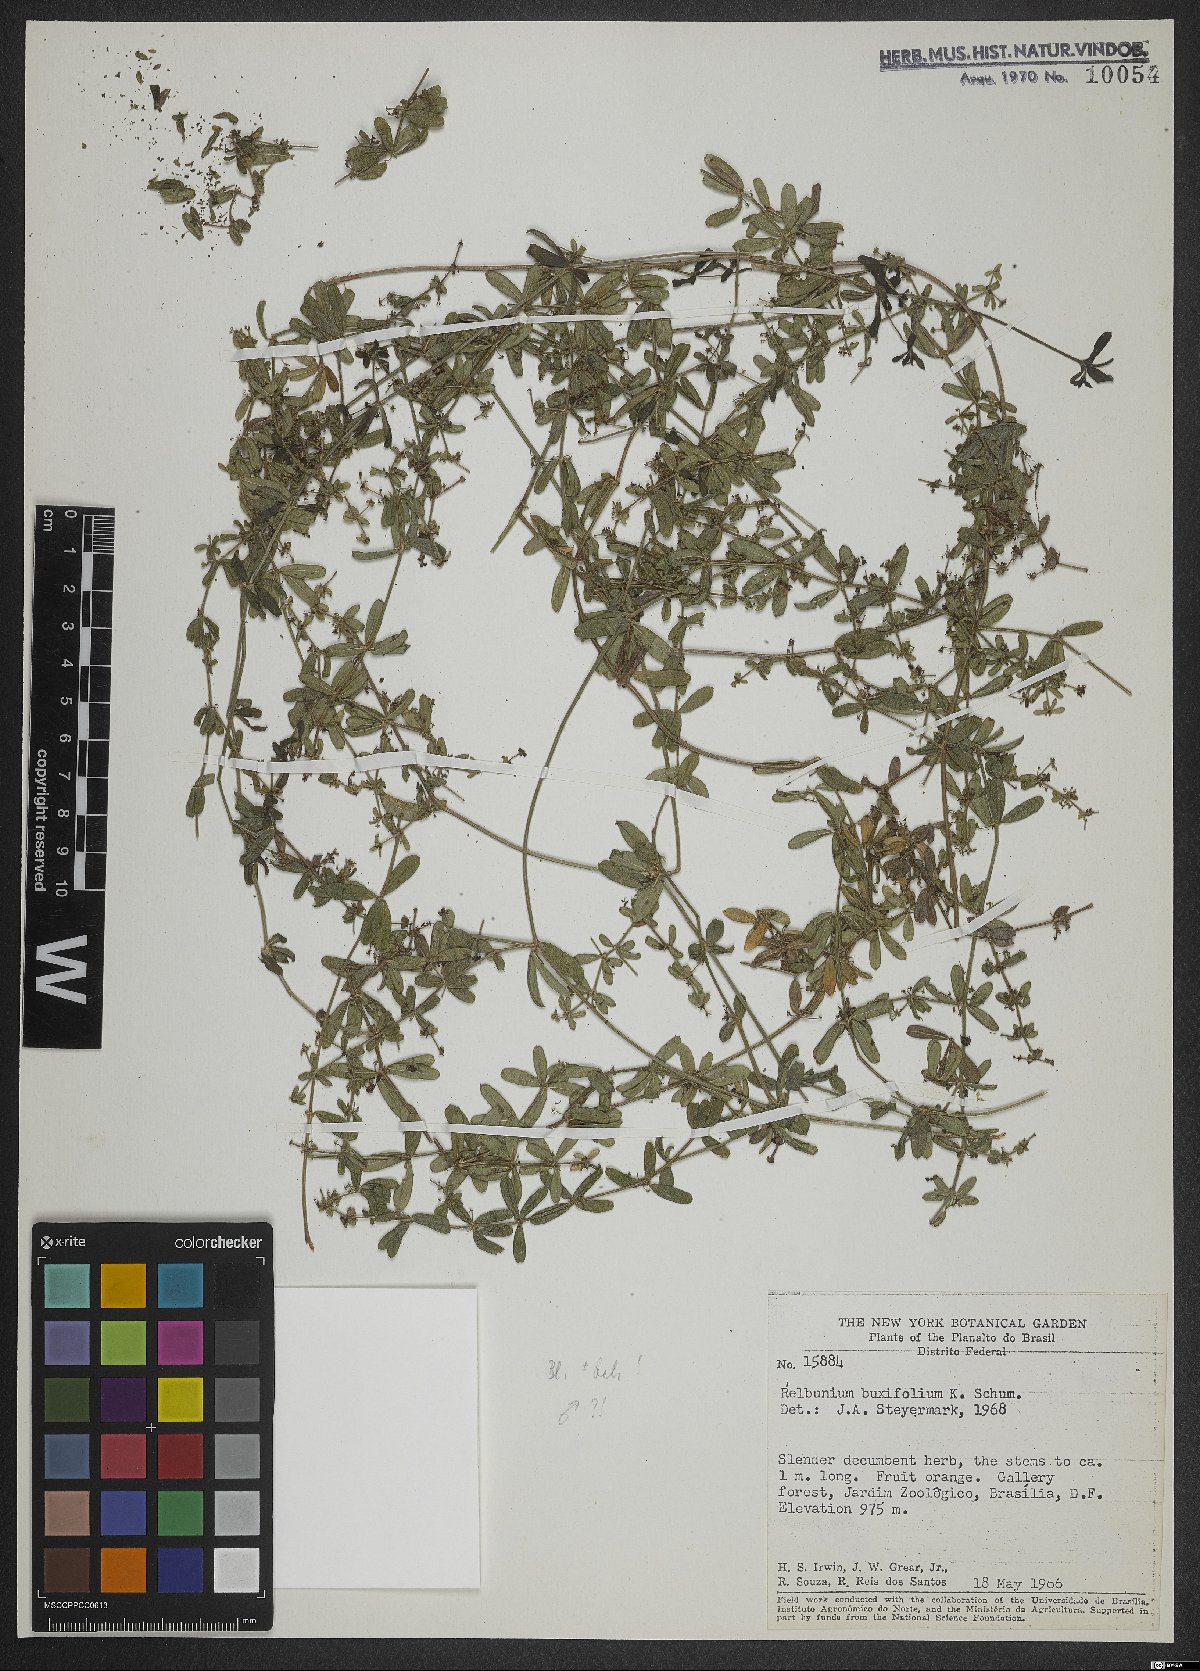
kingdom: Plantae
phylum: Tracheophyta
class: Magnoliopsida
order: Gentianales
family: Rubiaceae
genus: Galium
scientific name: Galium hypocarpium
